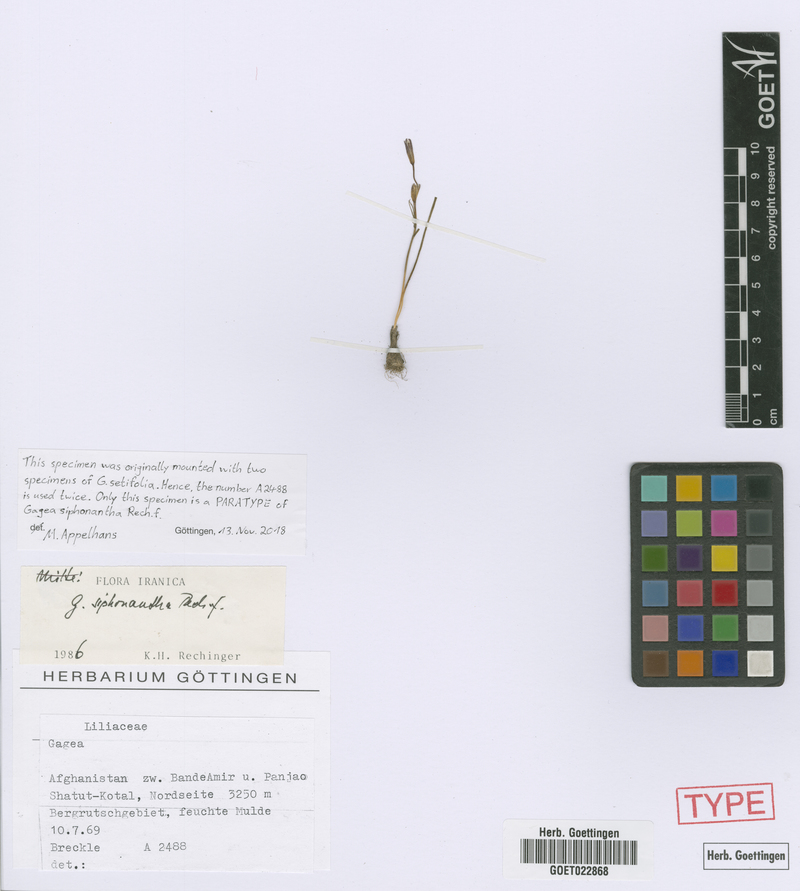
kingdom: Plantae
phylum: Tracheophyta
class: Liliopsida
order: Liliales
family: Liliaceae
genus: Gagea
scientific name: Gagea siphonantha
